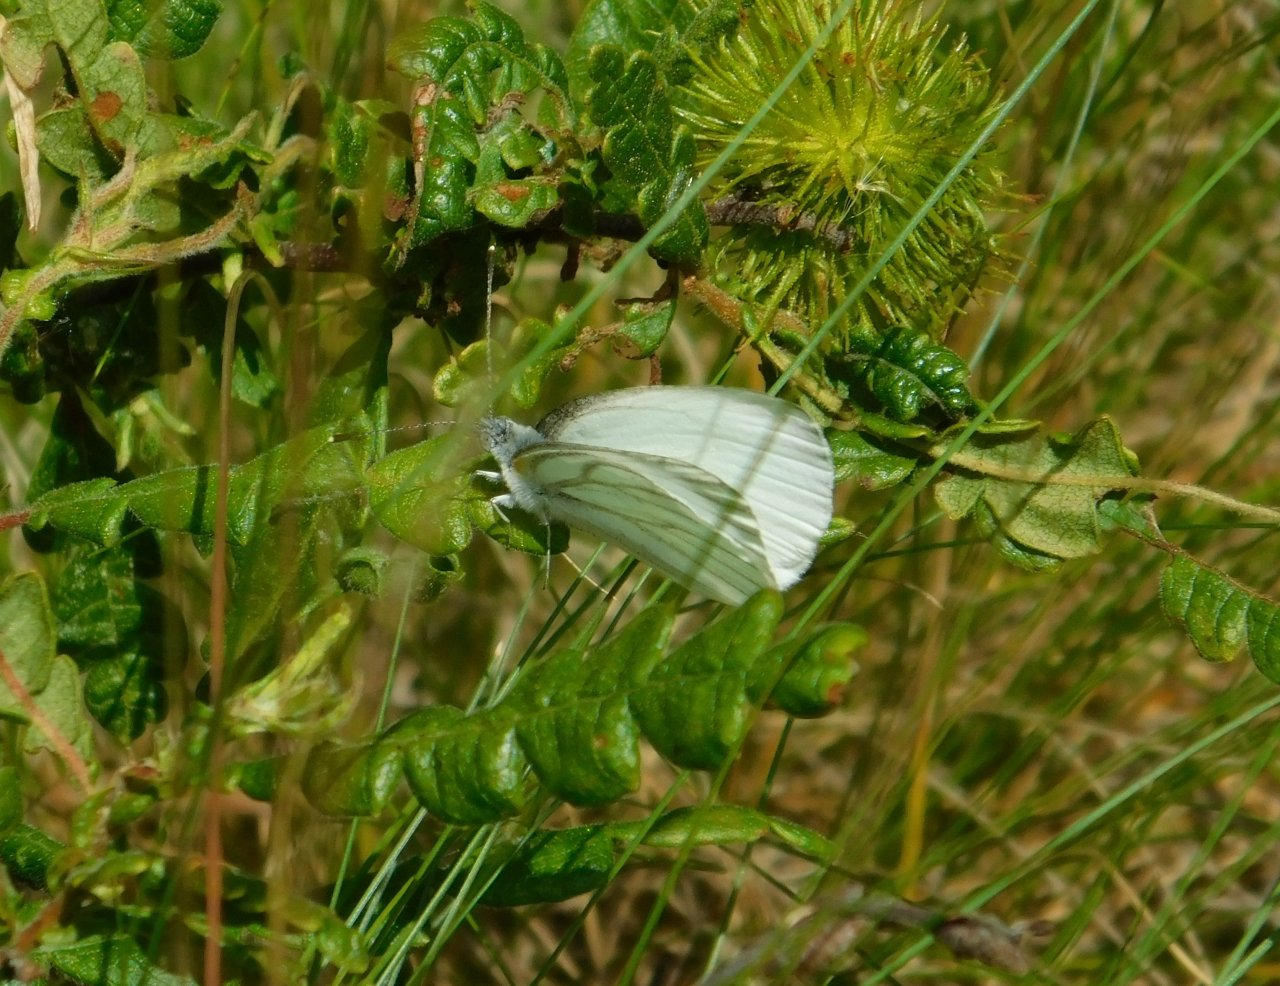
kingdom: Animalia
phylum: Arthropoda
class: Insecta
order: Lepidoptera
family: Pieridae
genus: Pieris
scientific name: Pieris oleracea
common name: Mustard White
